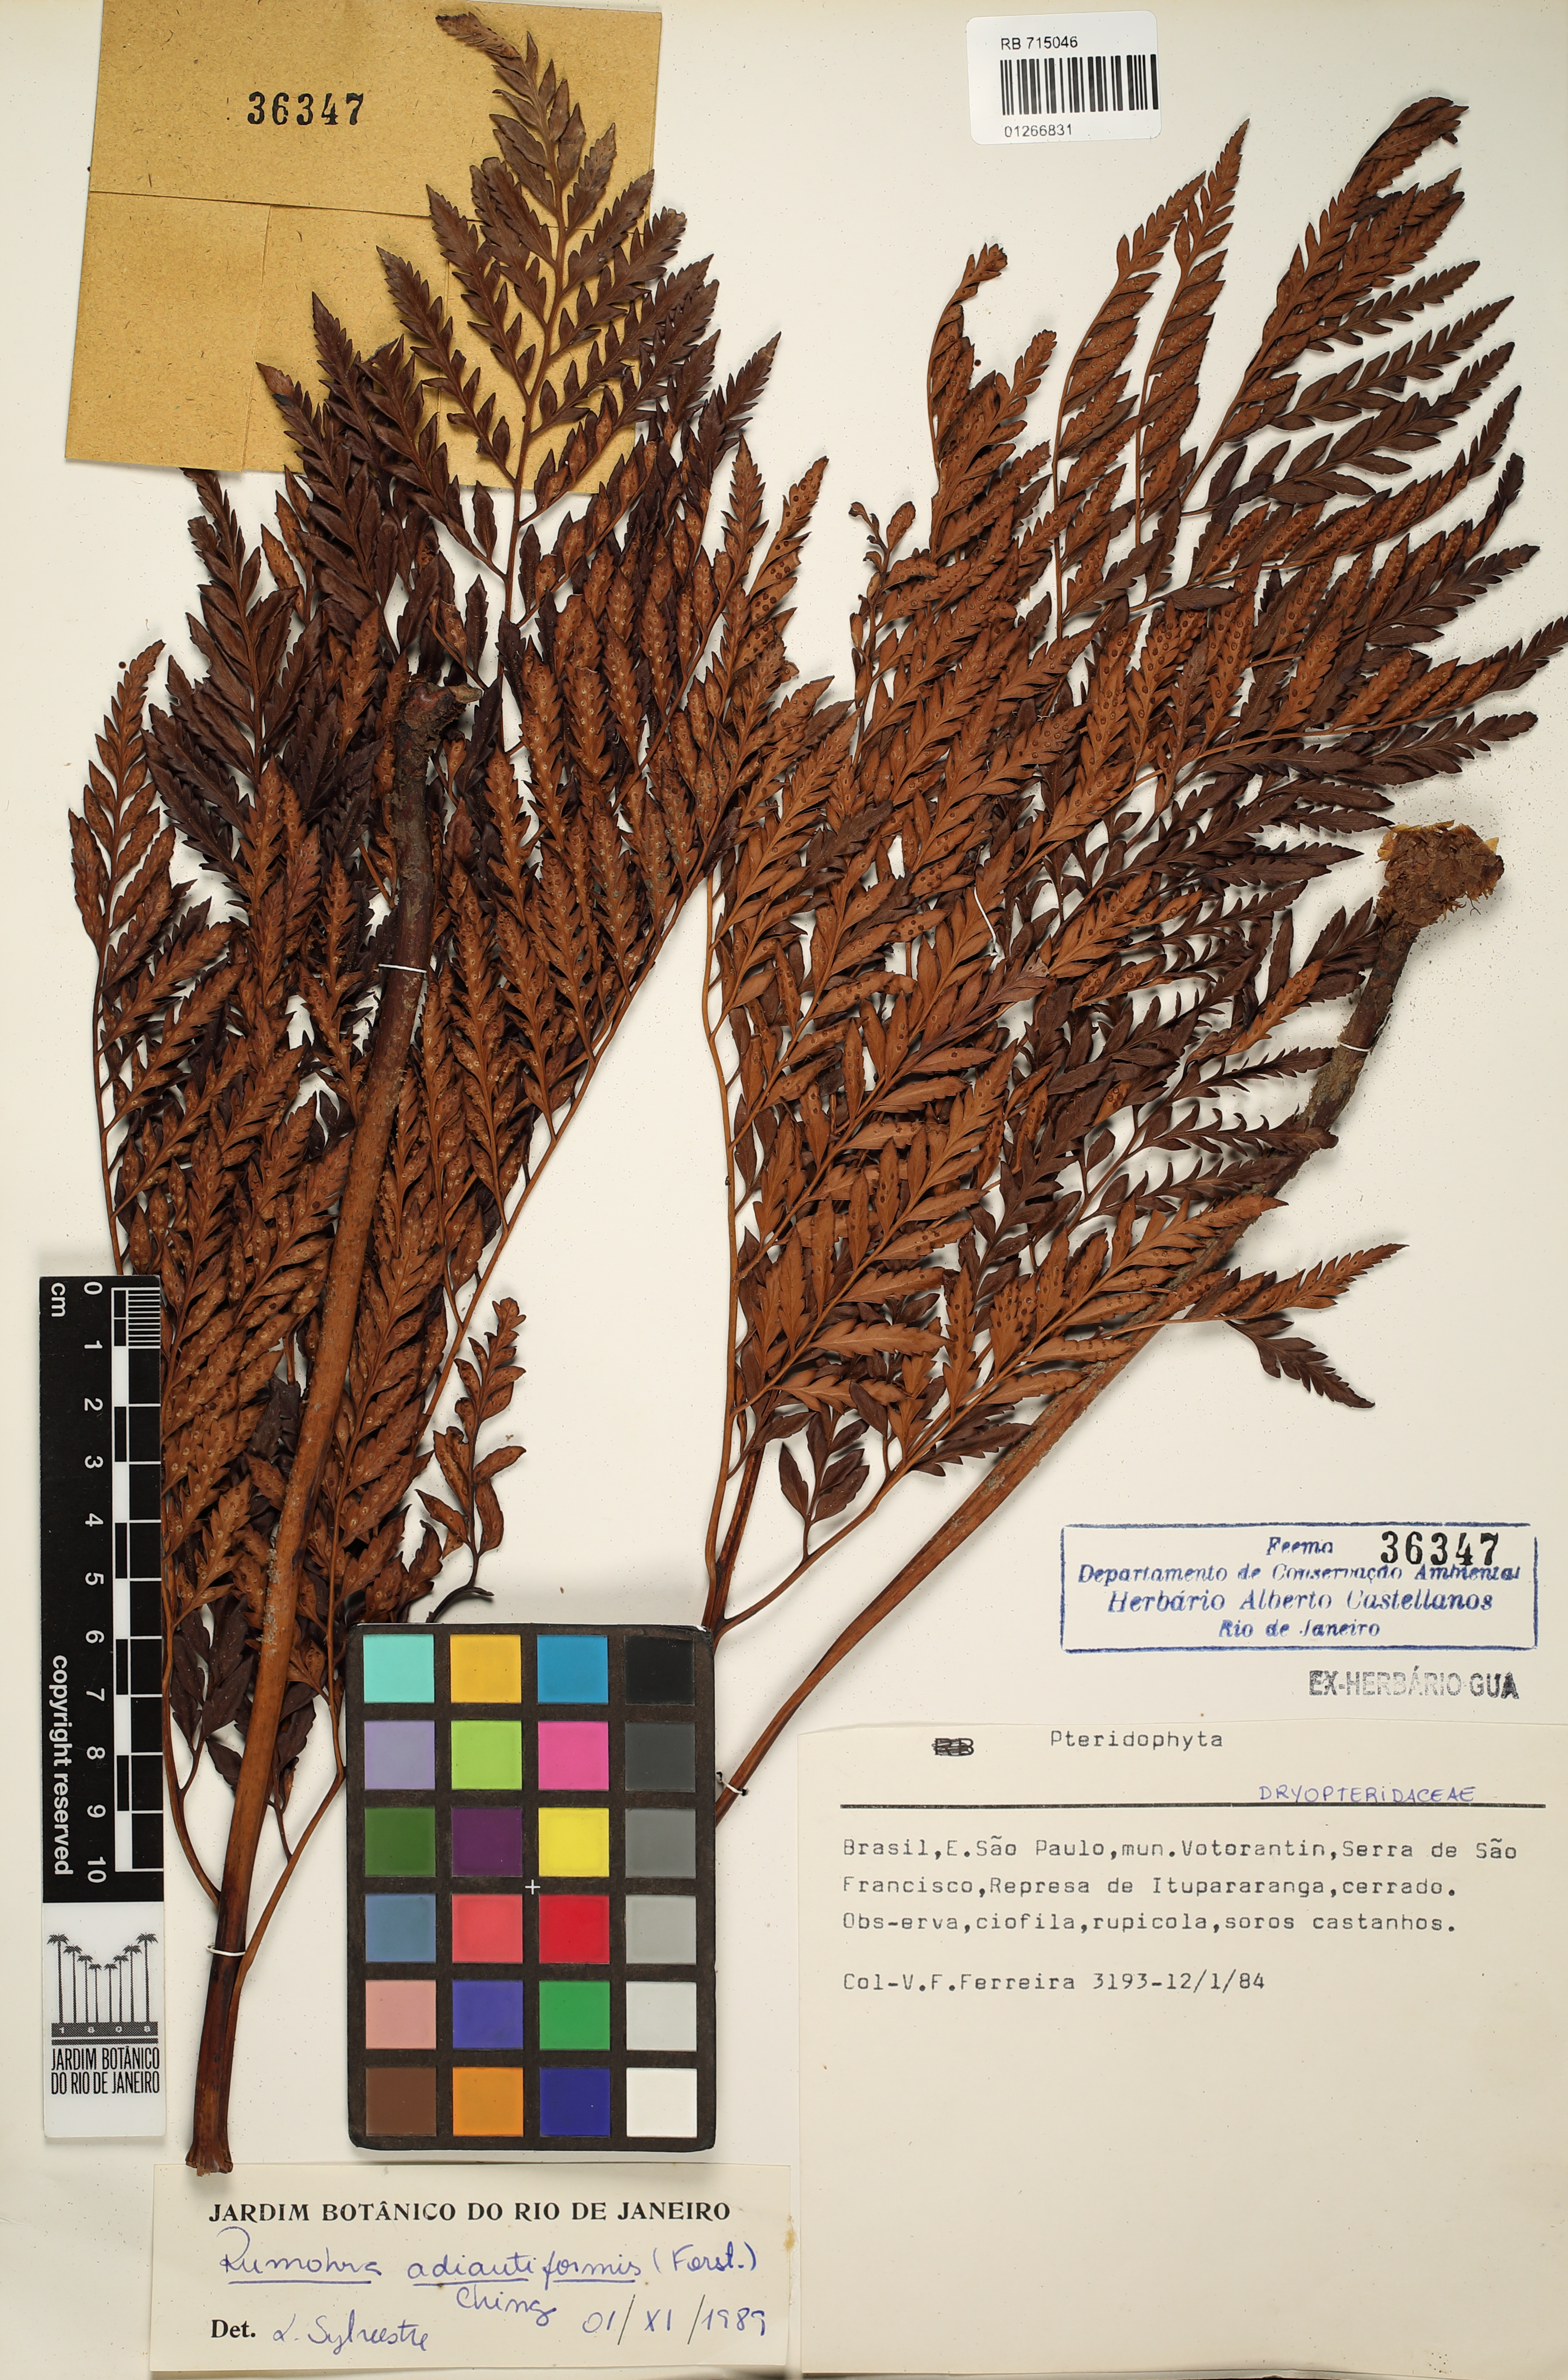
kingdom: Plantae
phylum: Tracheophyta
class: Polypodiopsida
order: Polypodiales
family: Dryopteridaceae
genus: Rumohra
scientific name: Rumohra adiantiformis
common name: Leather fern
